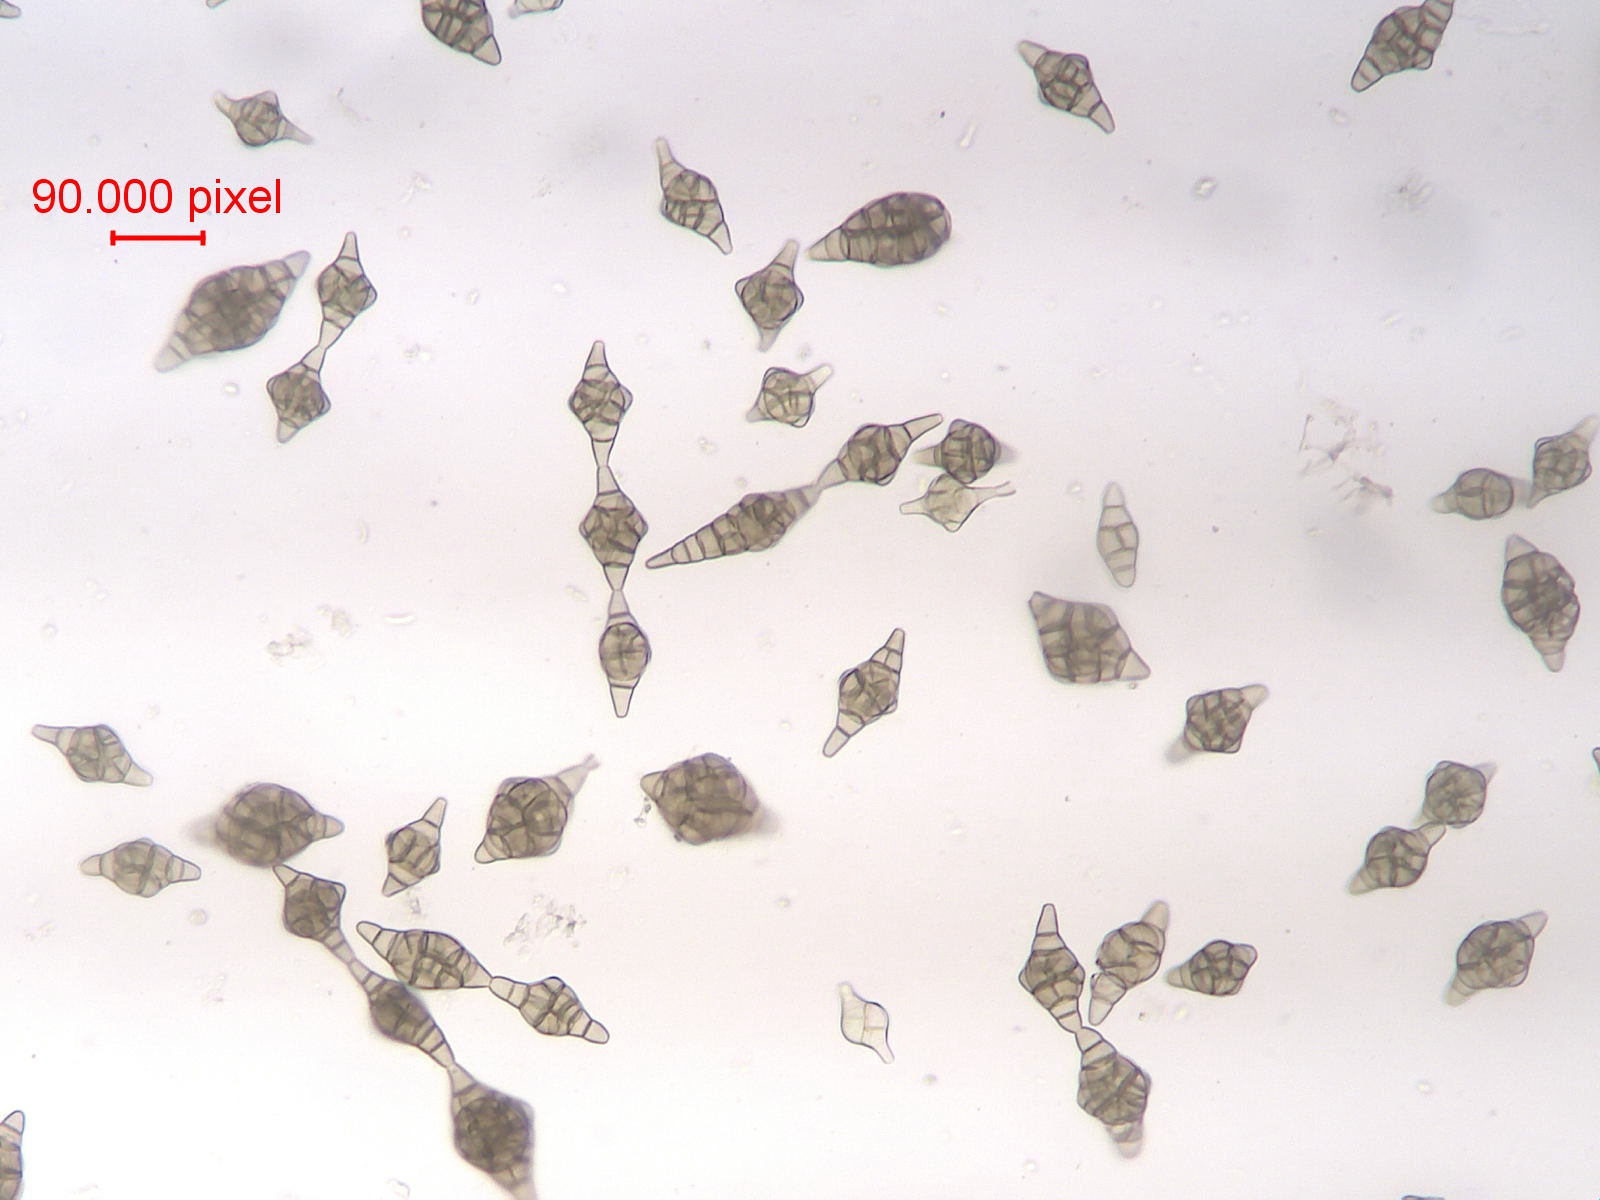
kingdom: Fungi
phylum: Ascomycota
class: Dothideomycetes
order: Pleosporales
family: Melanommataceae
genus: Phragmotrichum
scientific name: Phragmotrichum chailletii
